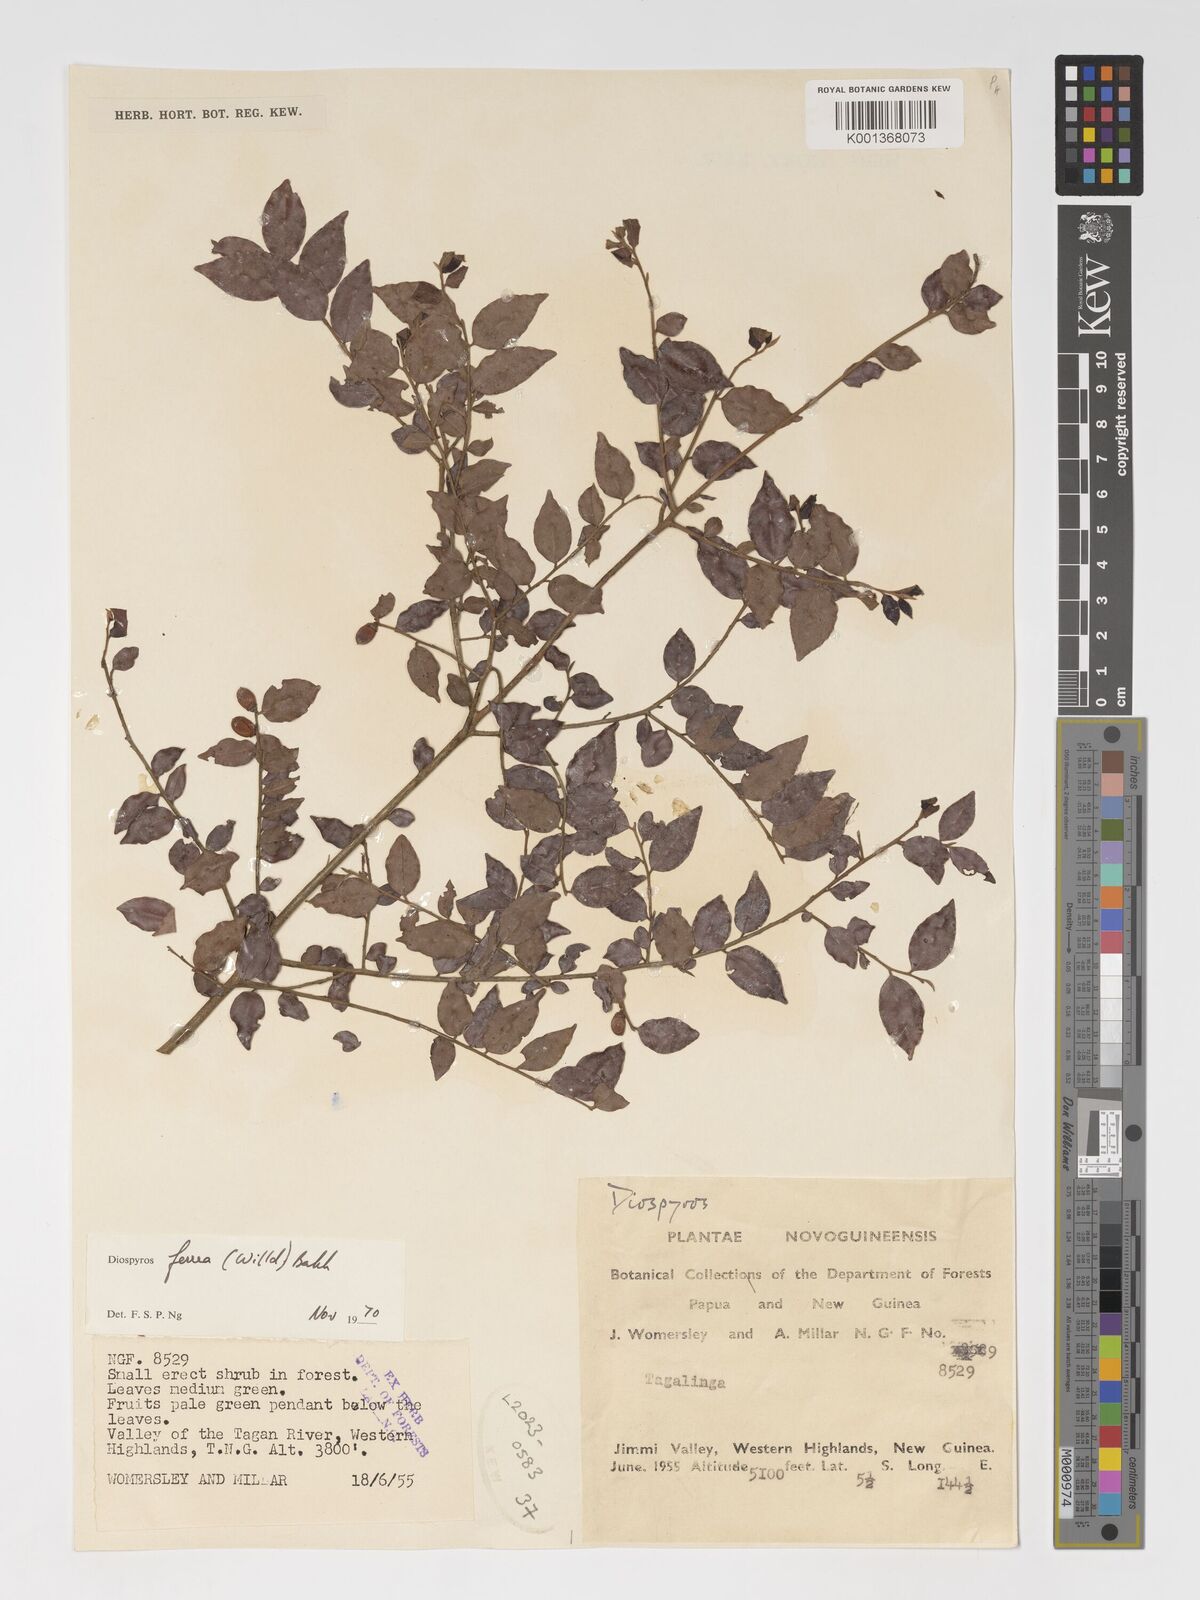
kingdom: Plantae
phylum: Tracheophyta
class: Magnoliopsida
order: Ericales
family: Ebenaceae
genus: Diospyros
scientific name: Diospyros ferrea
